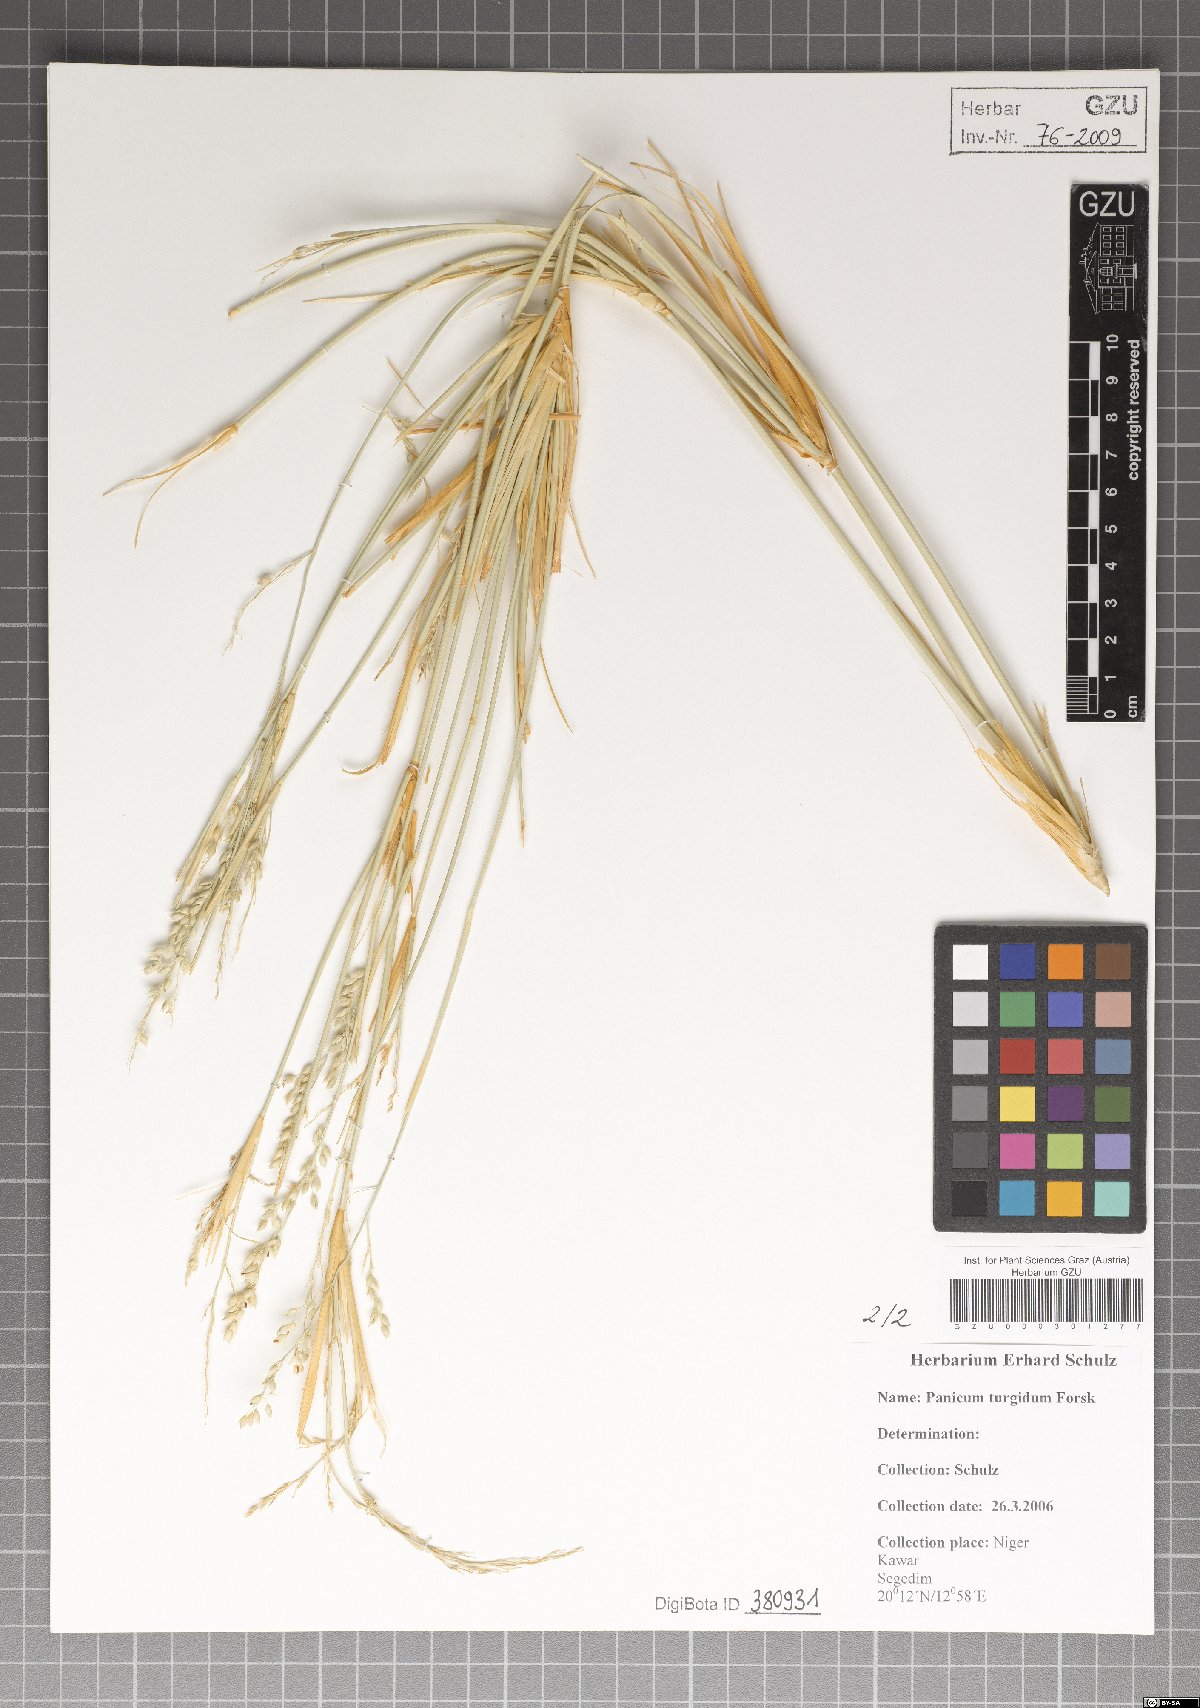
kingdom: Plantae
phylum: Tracheophyta
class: Liliopsida
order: Poales
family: Poaceae
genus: Panicum
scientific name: Panicum turgidum
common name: Desert grass
